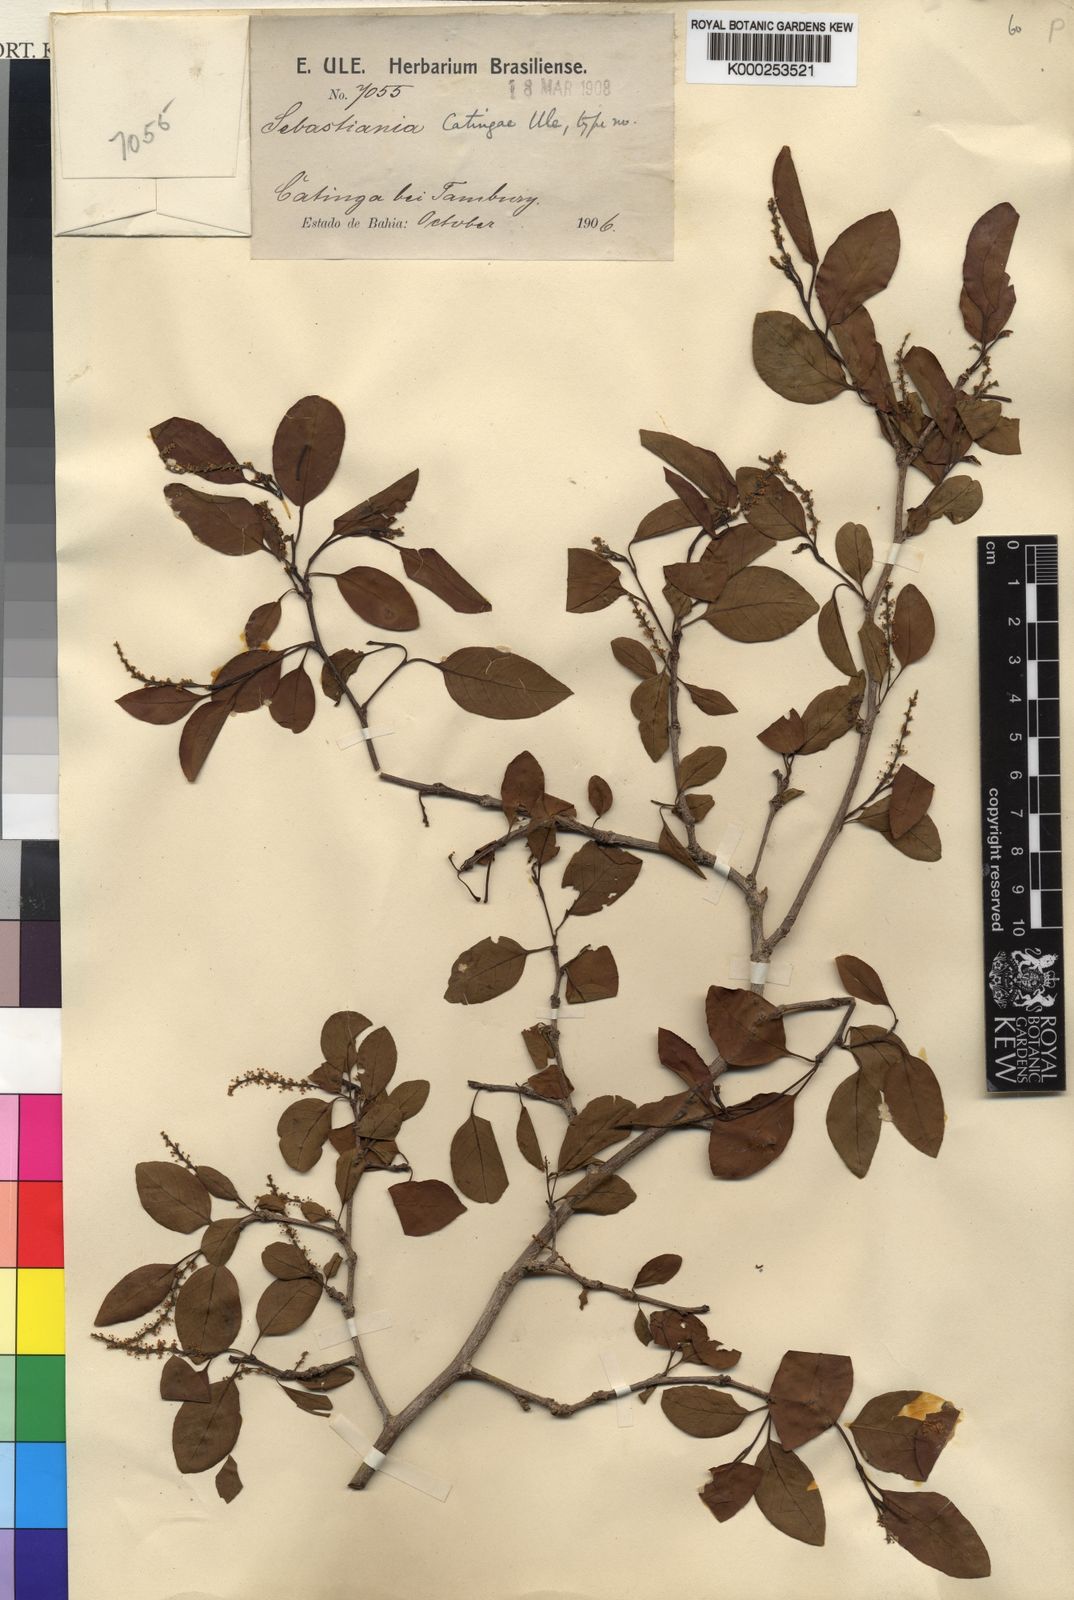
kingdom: Plantae
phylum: Tracheophyta
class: Magnoliopsida
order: Malpighiales
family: Euphorbiaceae
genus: Sebastiania
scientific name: Sebastiania macrocarpa
